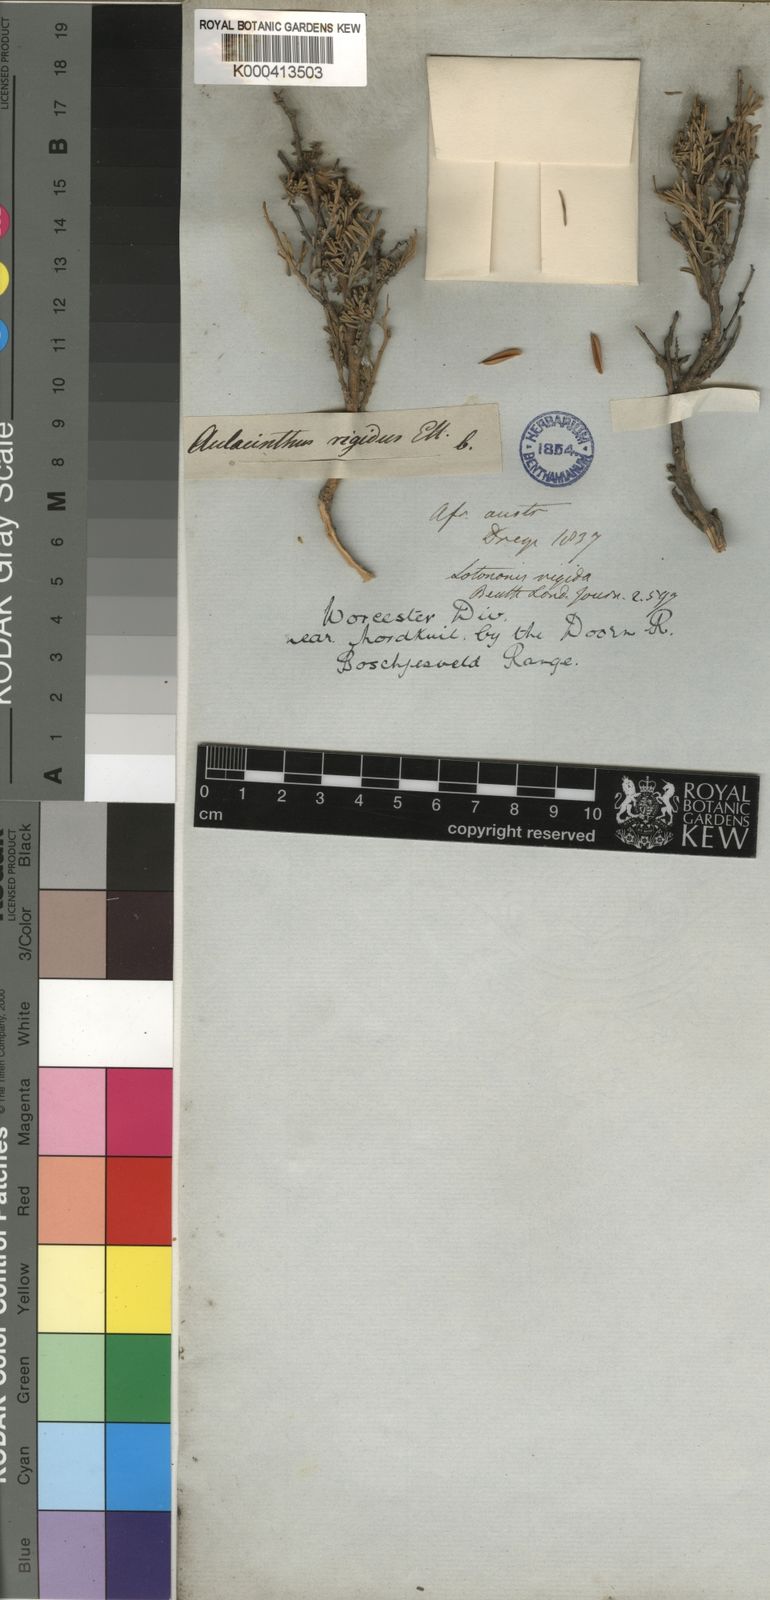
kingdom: Plantae
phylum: Tracheophyta
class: Magnoliopsida
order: Fabales
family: Fabaceae
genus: Lotononis
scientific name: Lotononis rigida
